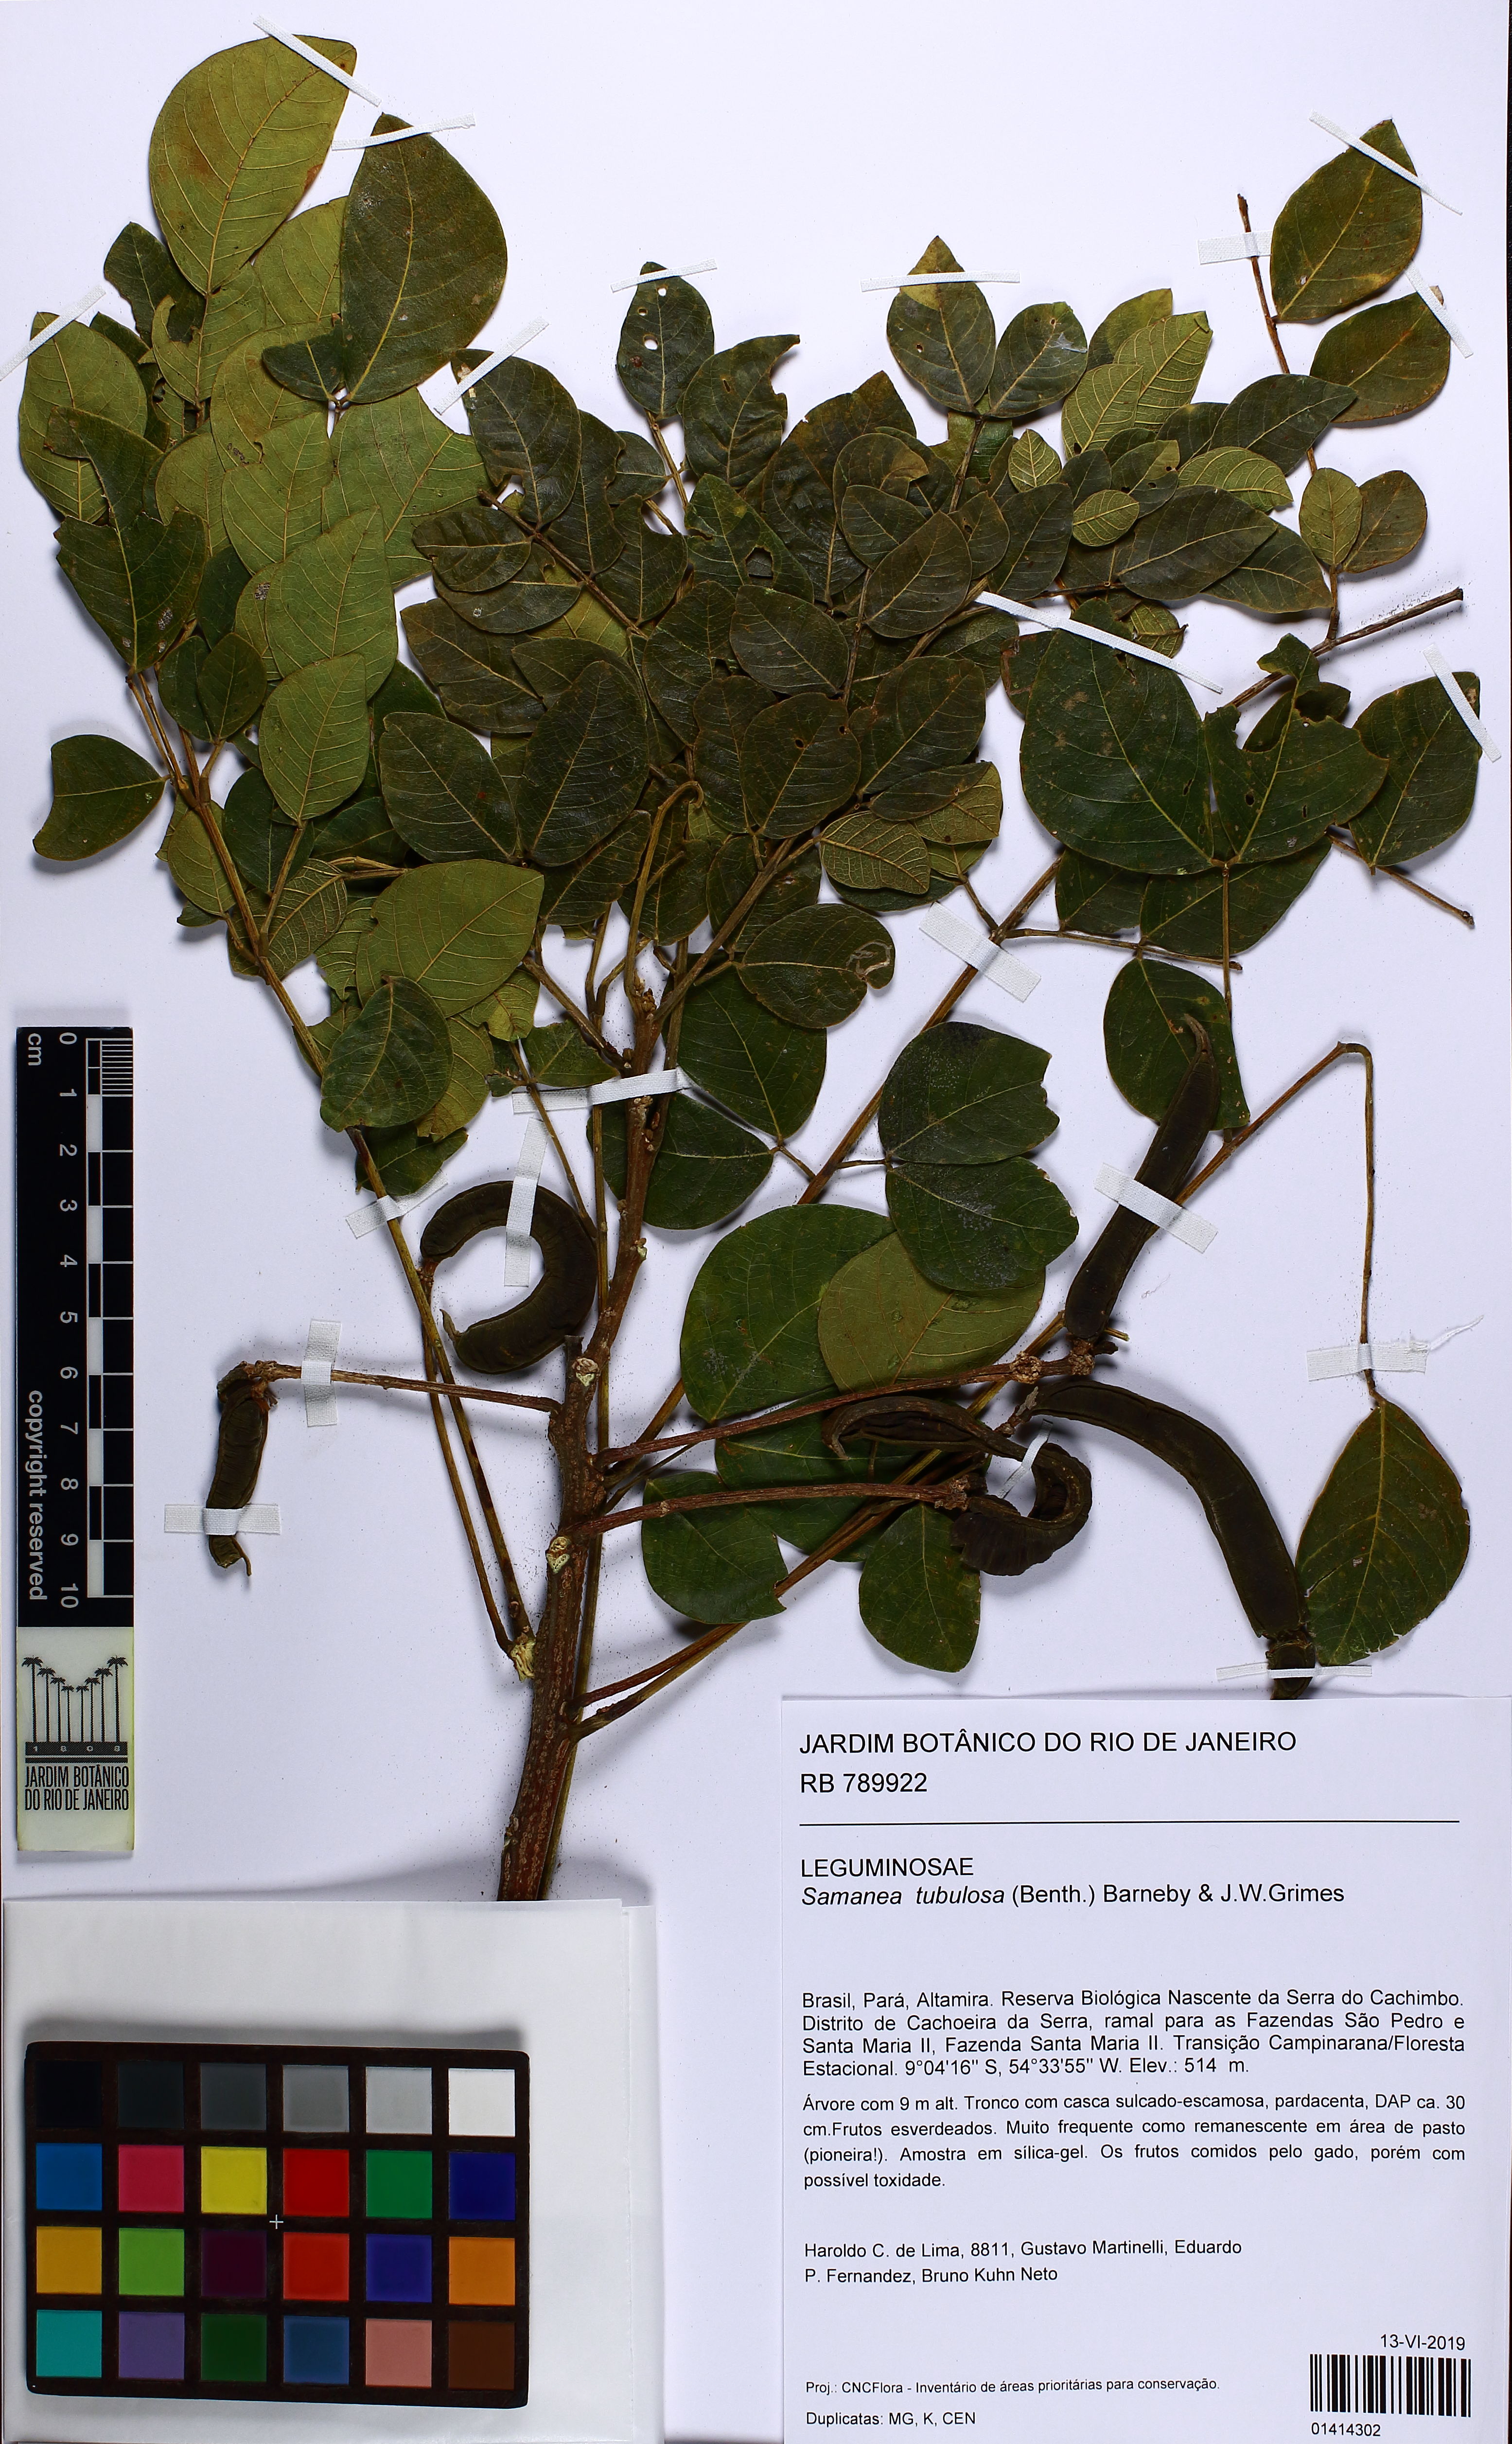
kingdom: Plantae
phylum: Tracheophyta
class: Magnoliopsida
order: Fabales
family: Fabaceae
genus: Samanea
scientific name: Samanea tubulosa
